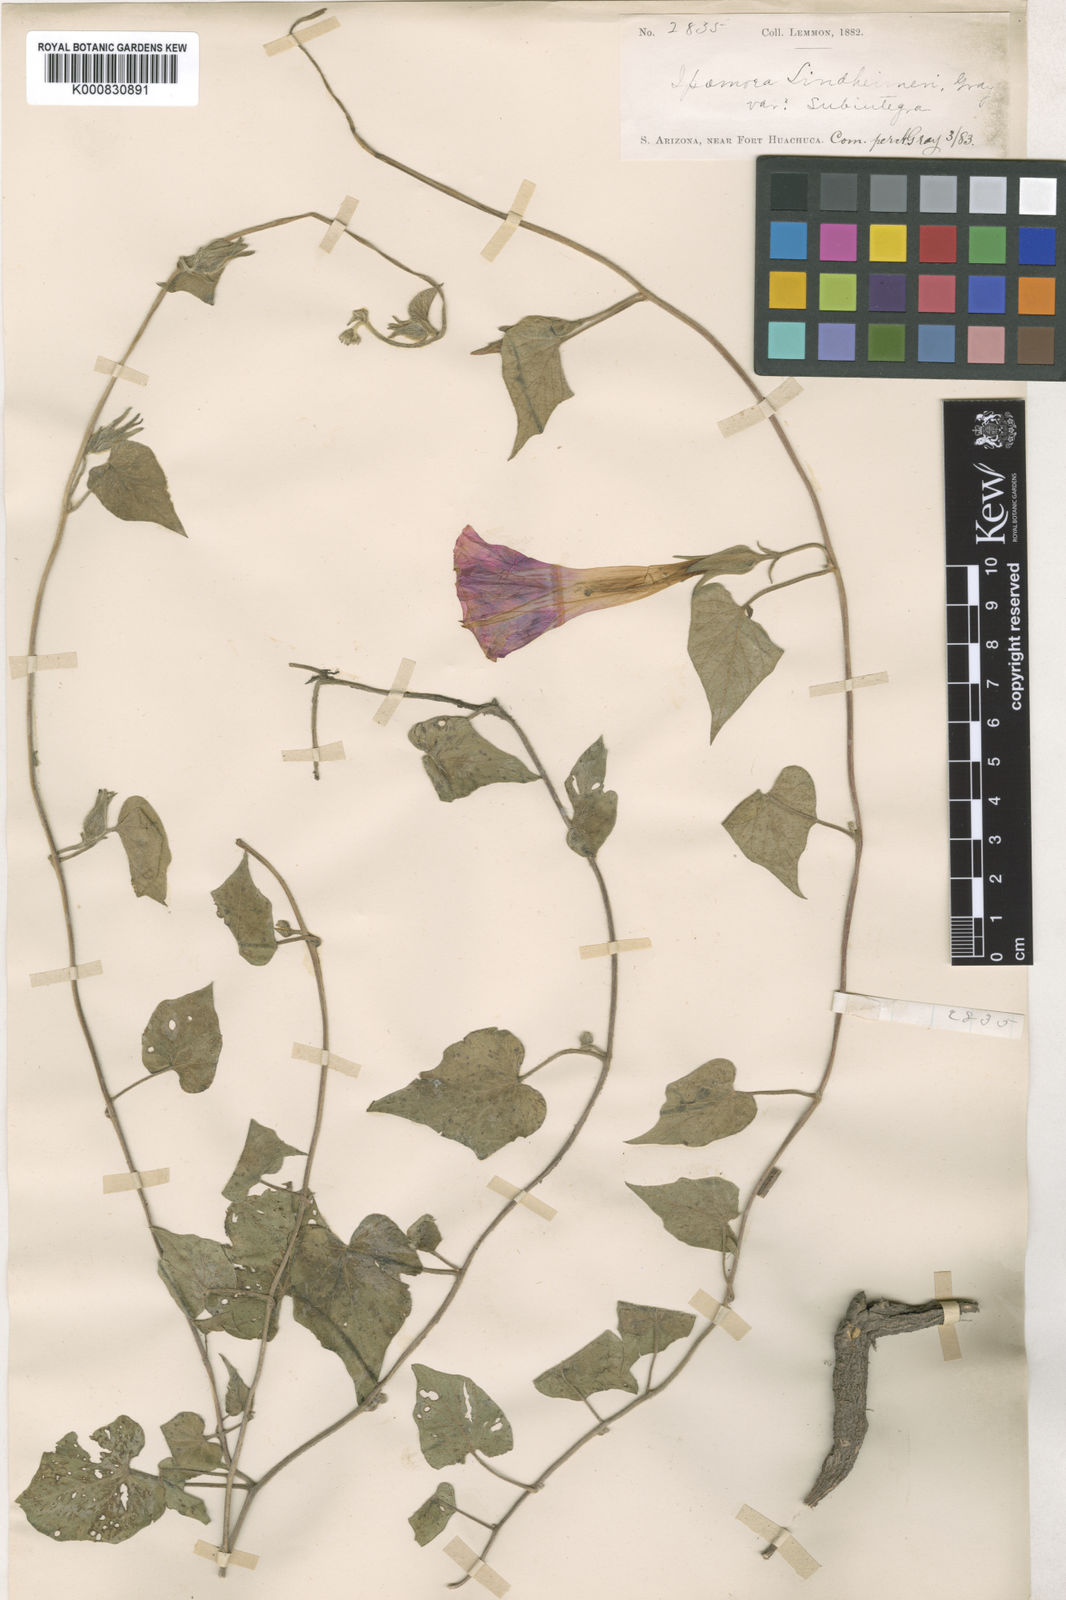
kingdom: Plantae
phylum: Tracheophyta
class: Magnoliopsida
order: Solanales
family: Convolvulaceae
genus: Ipomoea
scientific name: Ipomoea lindheimeri
